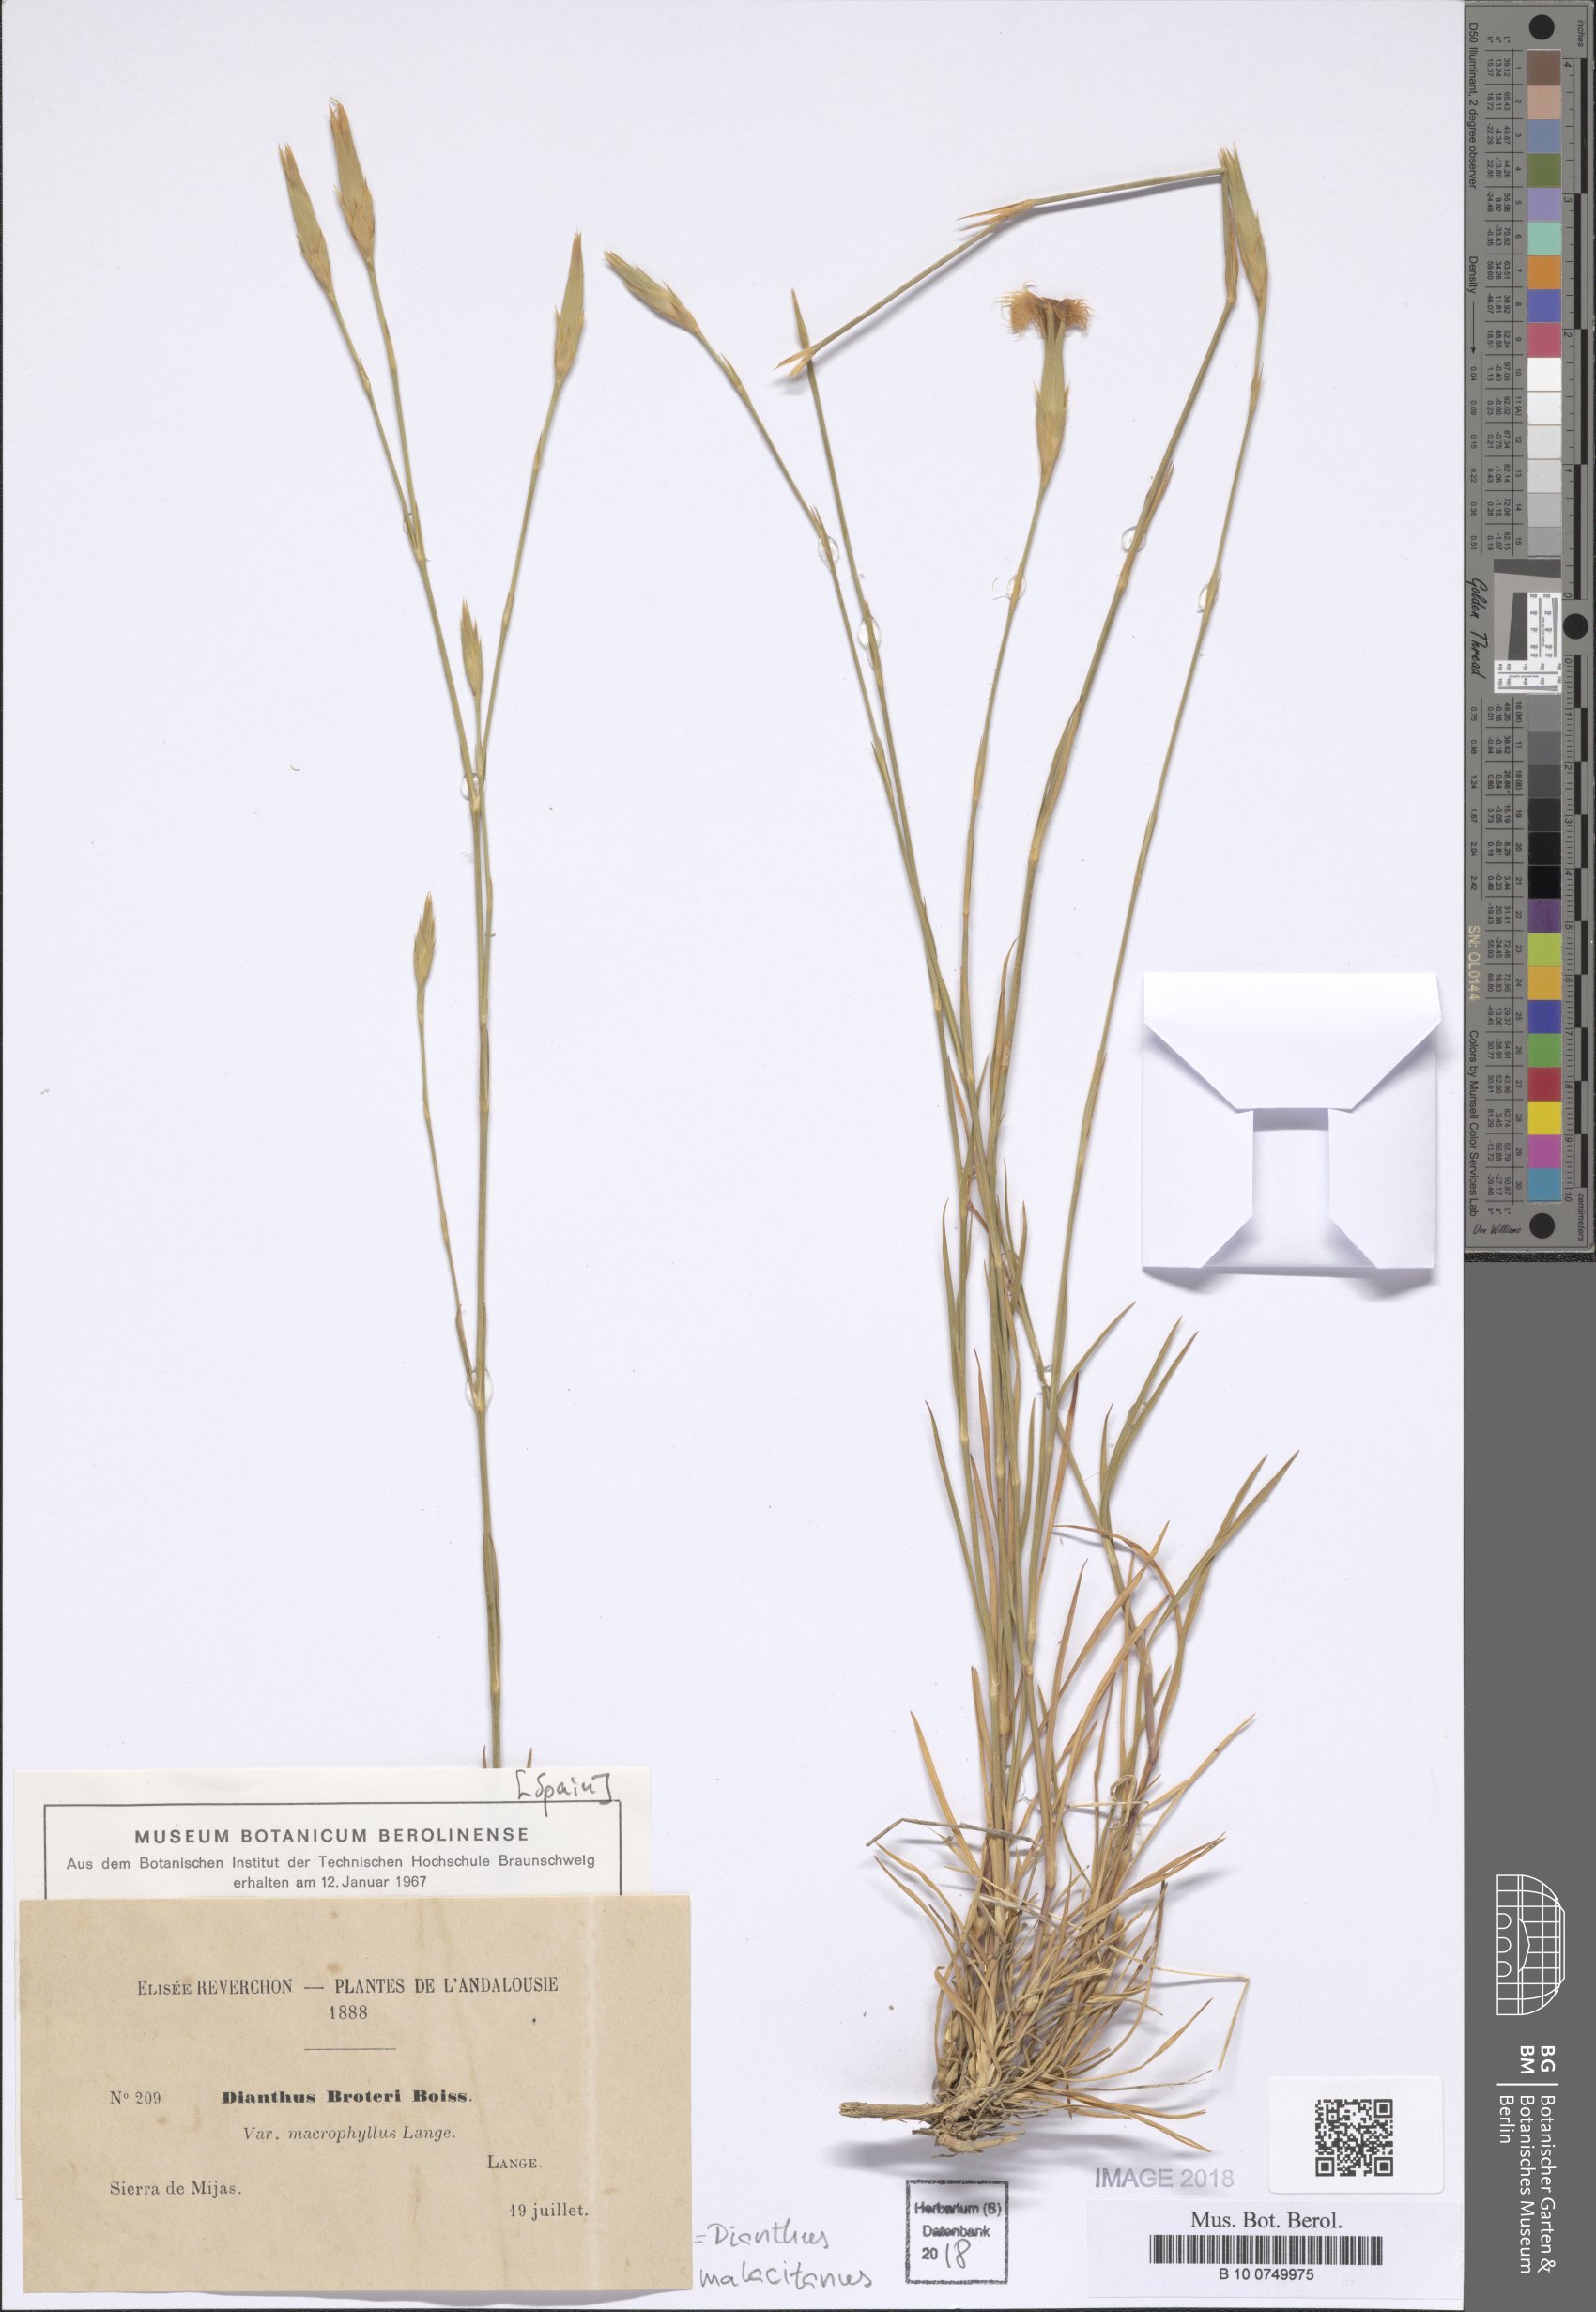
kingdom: Plantae
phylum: Tracheophyta
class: Magnoliopsida
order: Caryophyllales
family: Caryophyllaceae
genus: Dianthus
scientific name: Dianthus broteri
